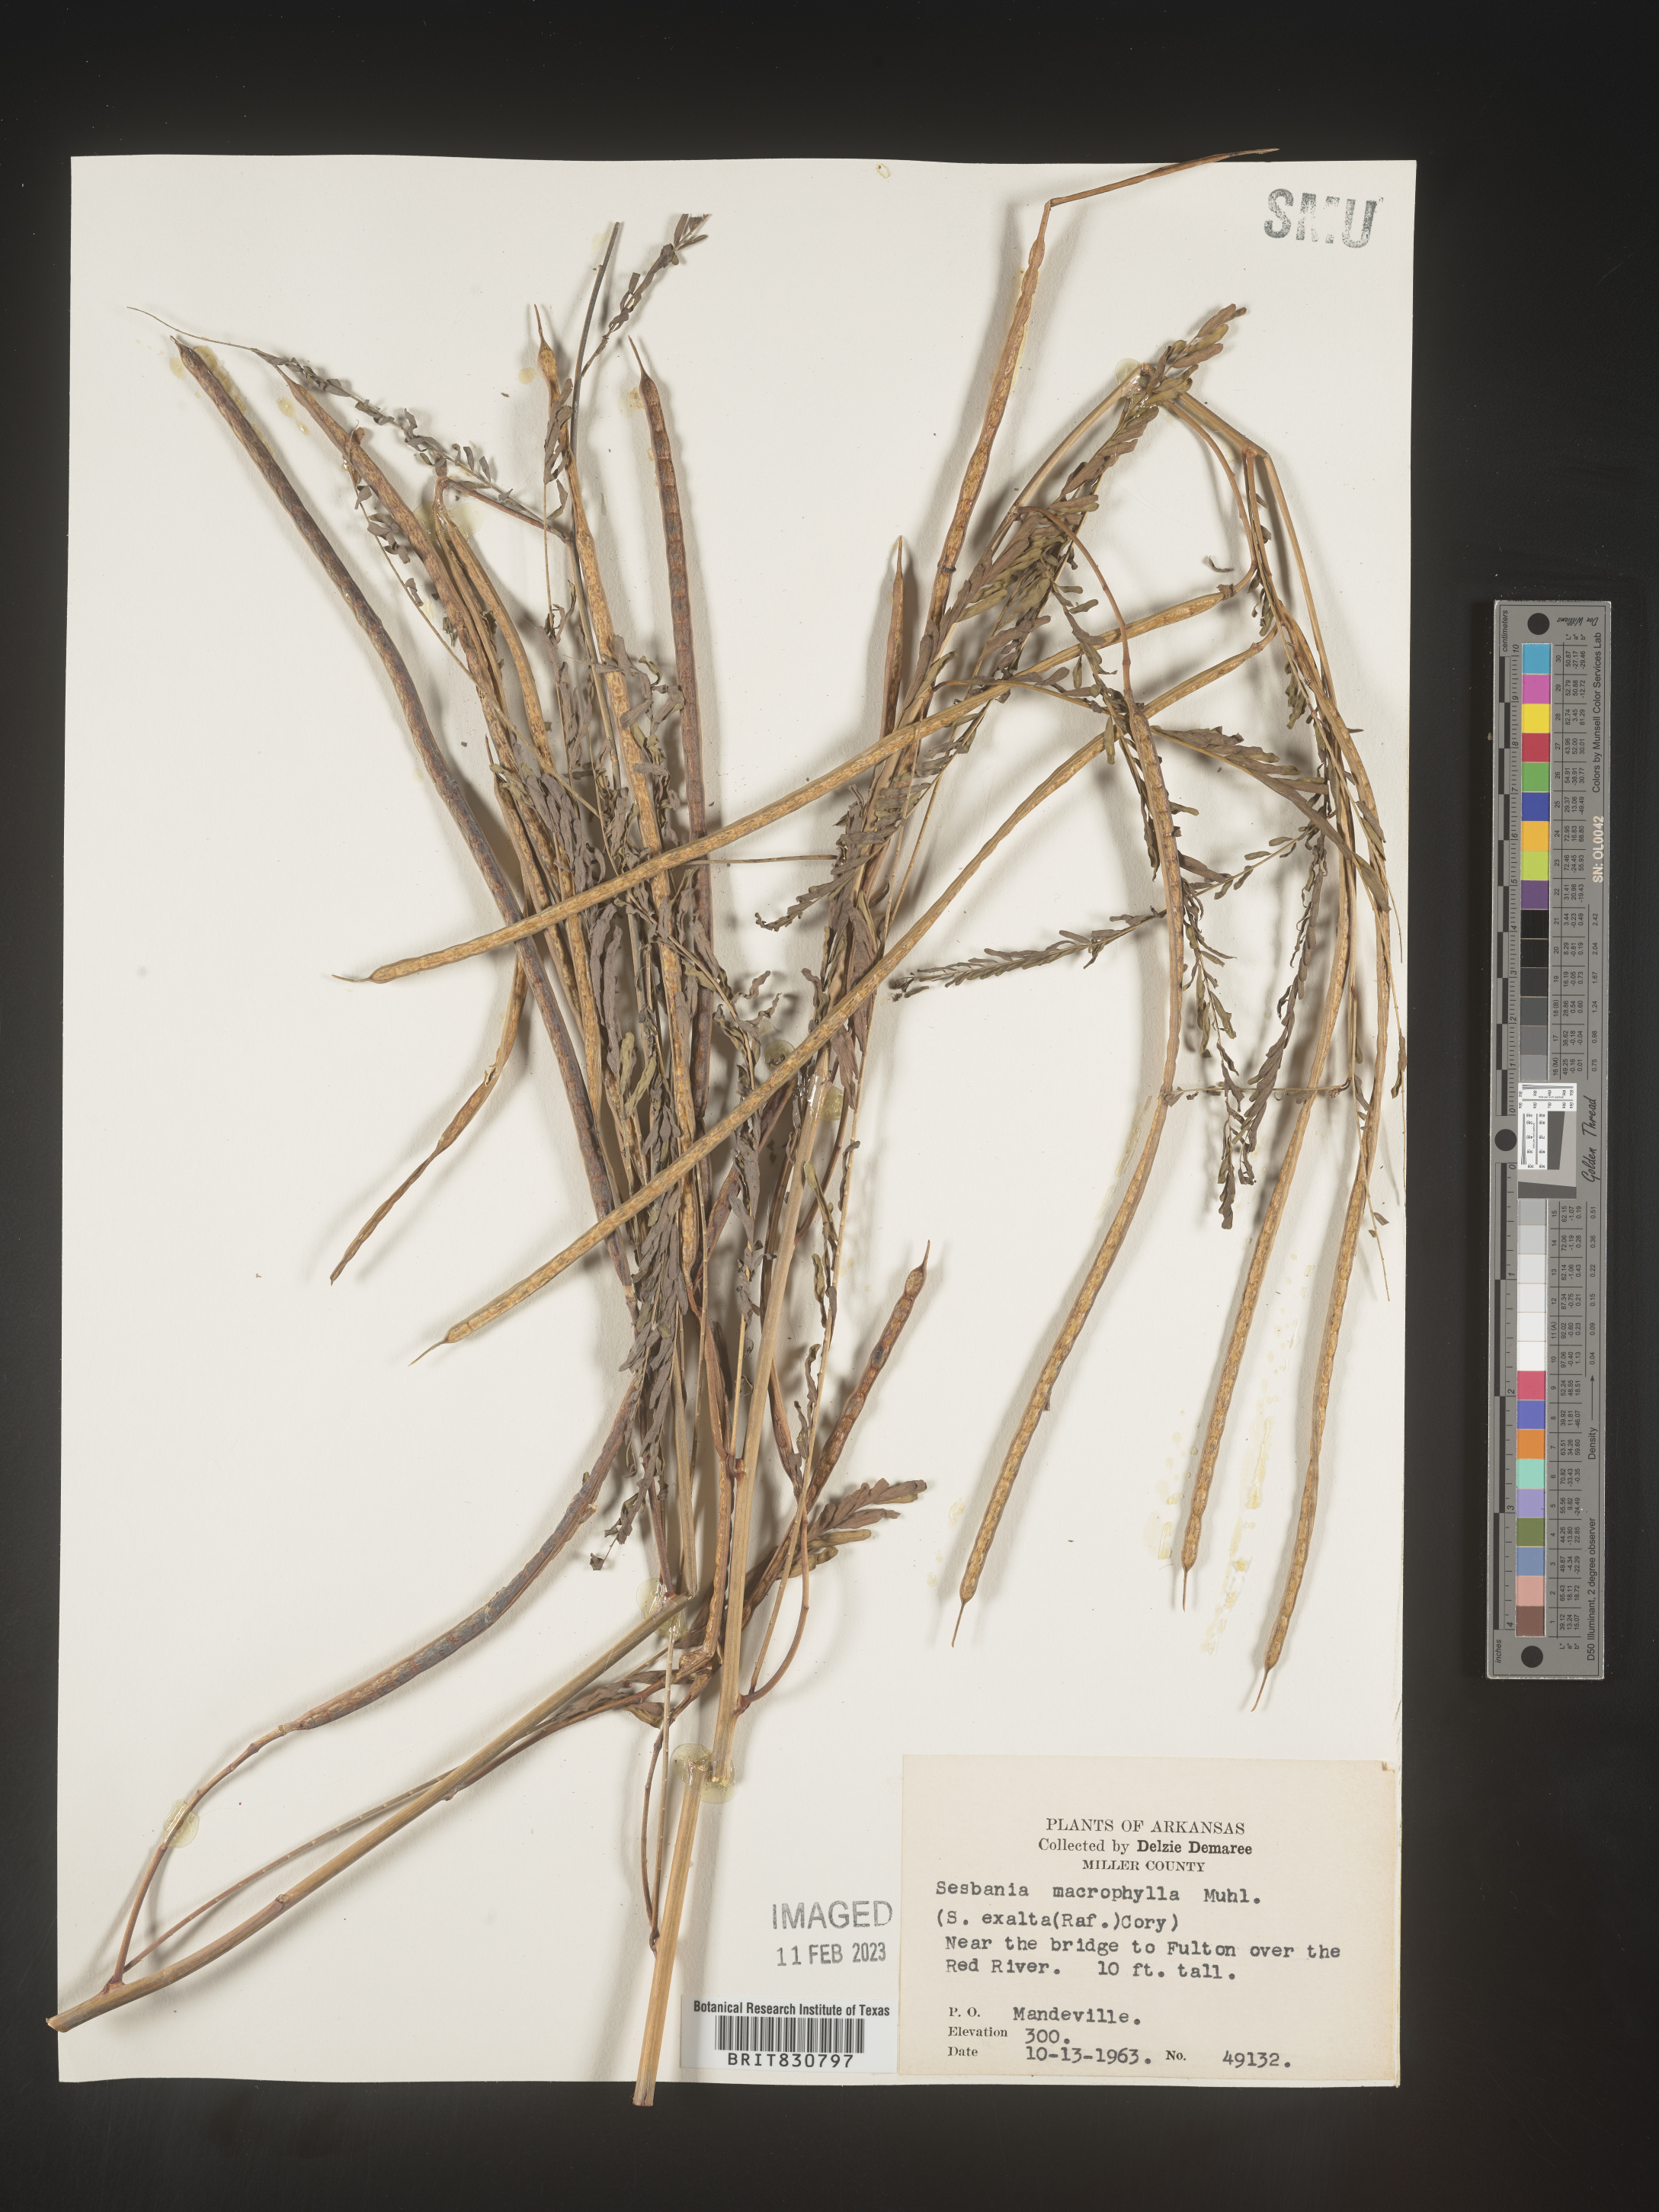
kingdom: Plantae
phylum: Tracheophyta
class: Magnoliopsida
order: Fabales
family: Fabaceae
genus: Sesbania
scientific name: Sesbania vesicaria
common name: Bagpod
